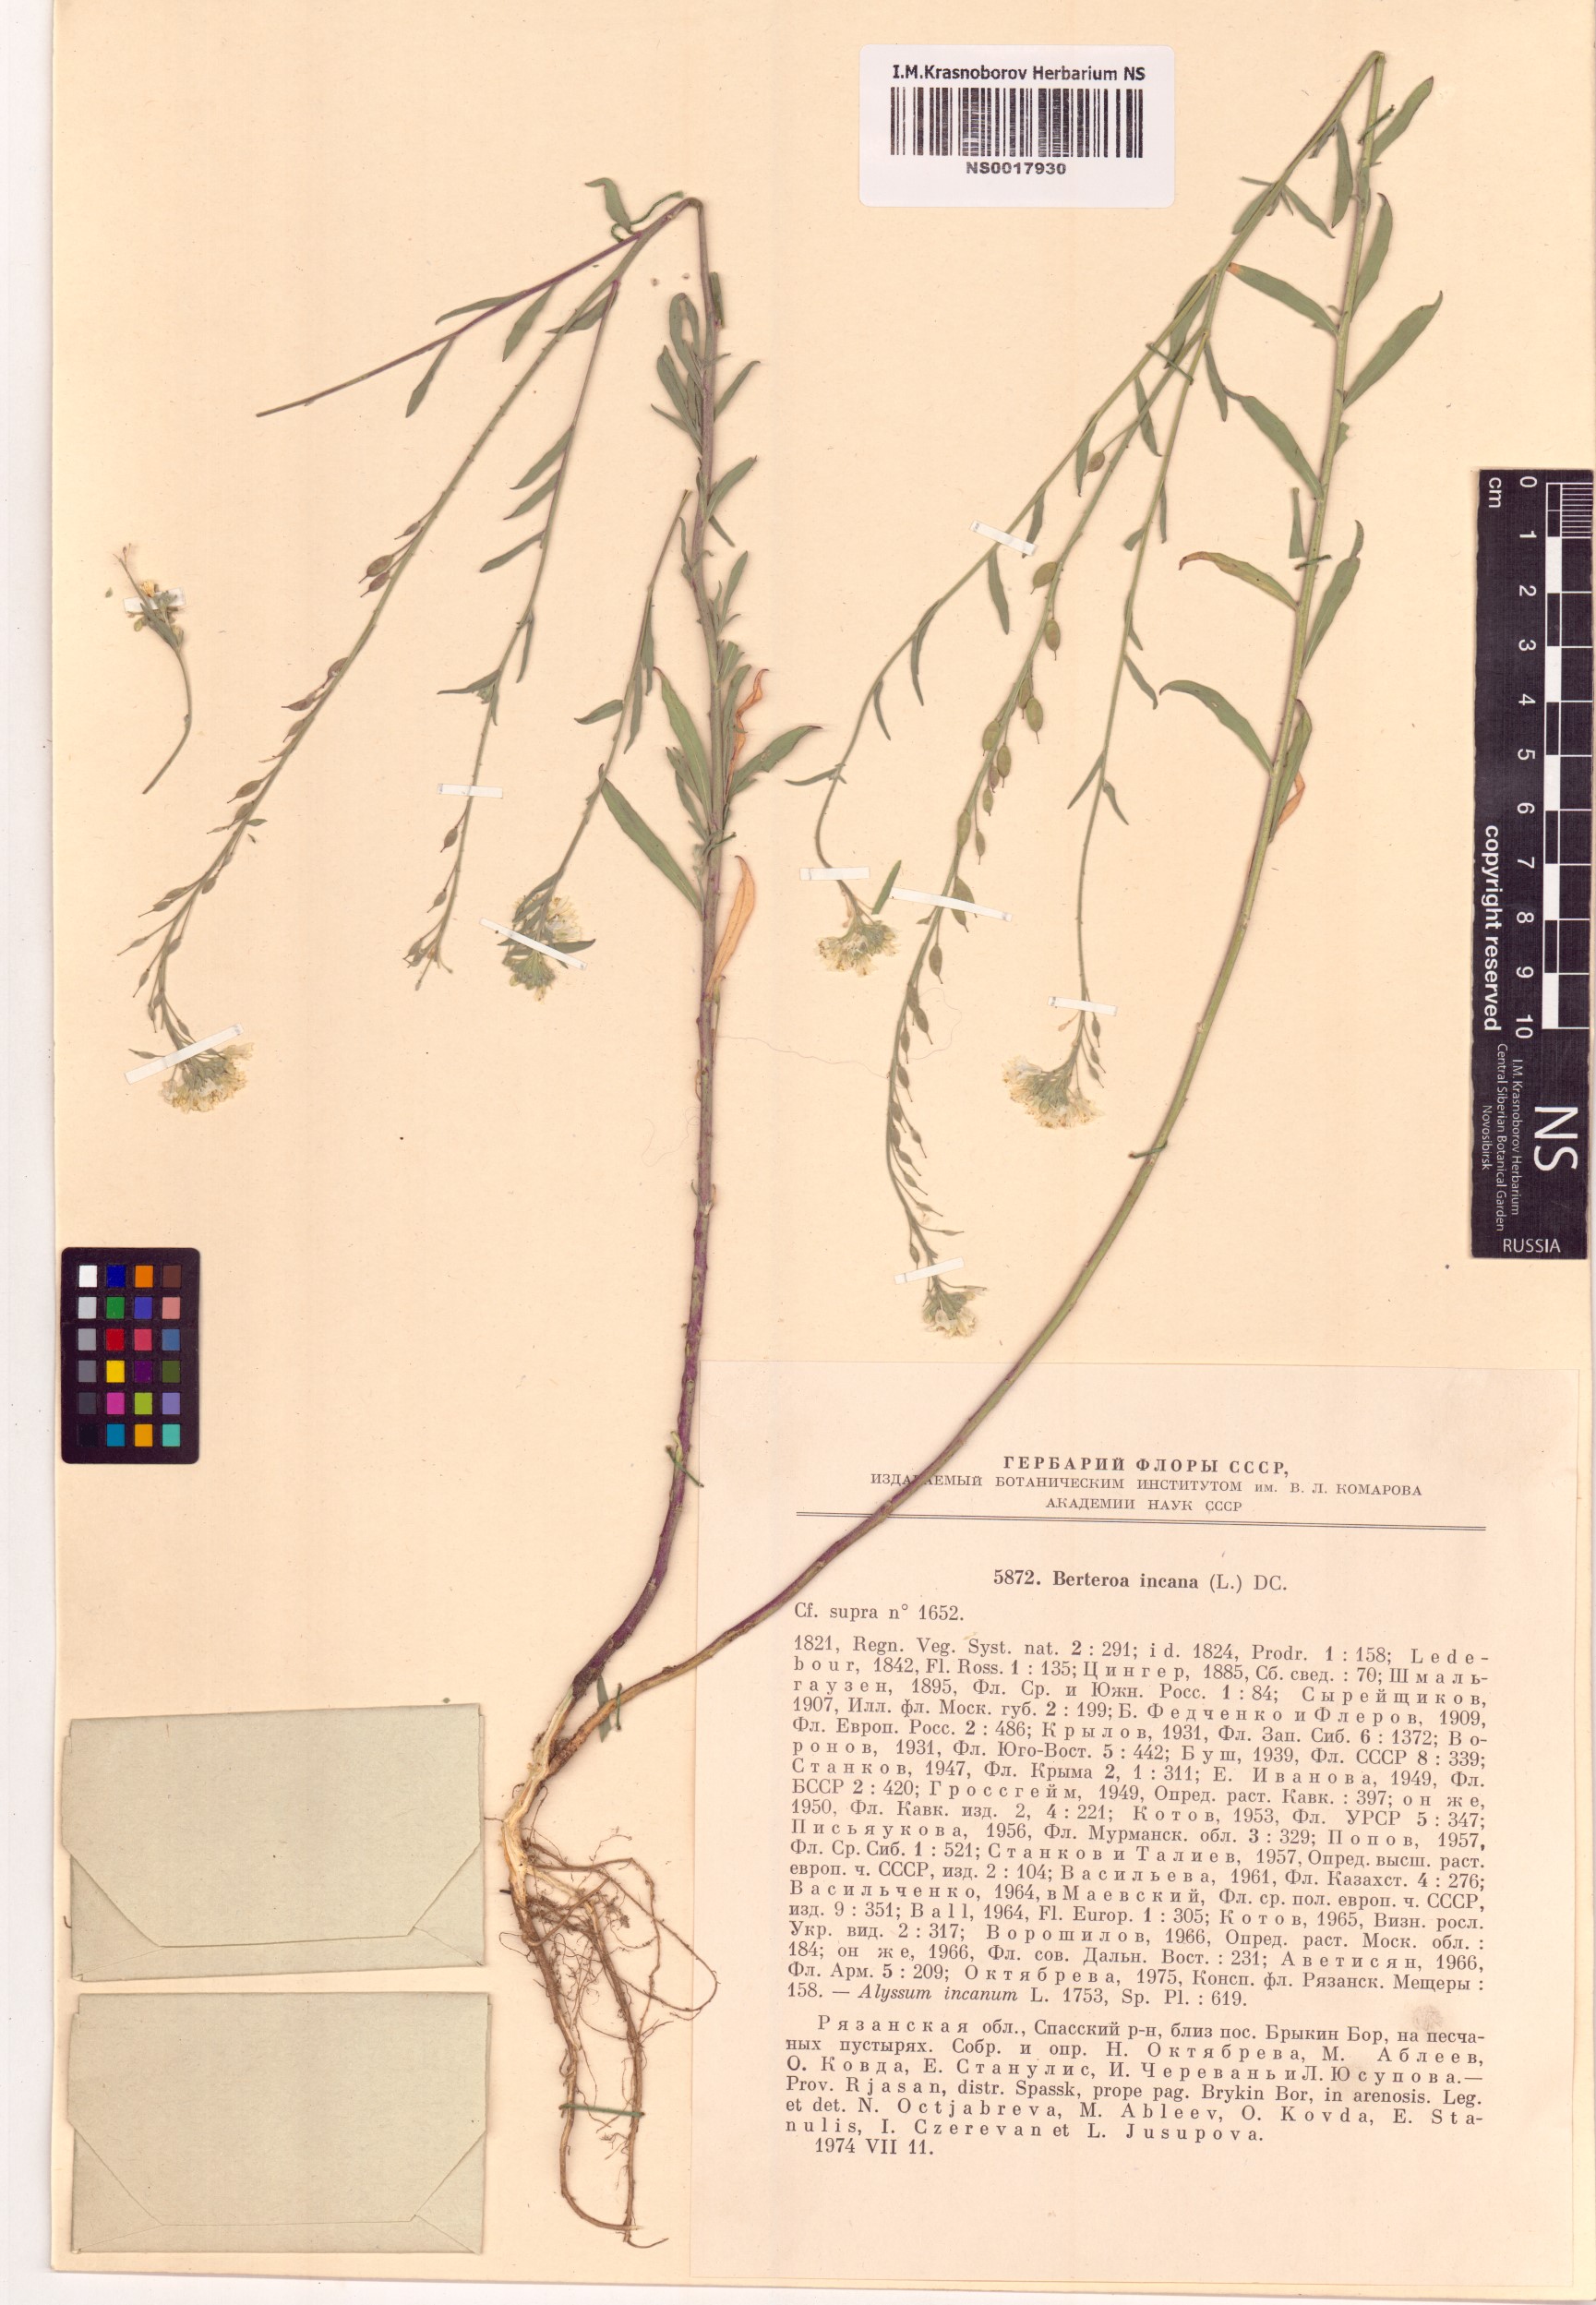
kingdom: Plantae
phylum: Tracheophyta
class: Magnoliopsida
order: Brassicales
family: Brassicaceae
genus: Berteroa
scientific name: Berteroa incana
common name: Hoary alison
